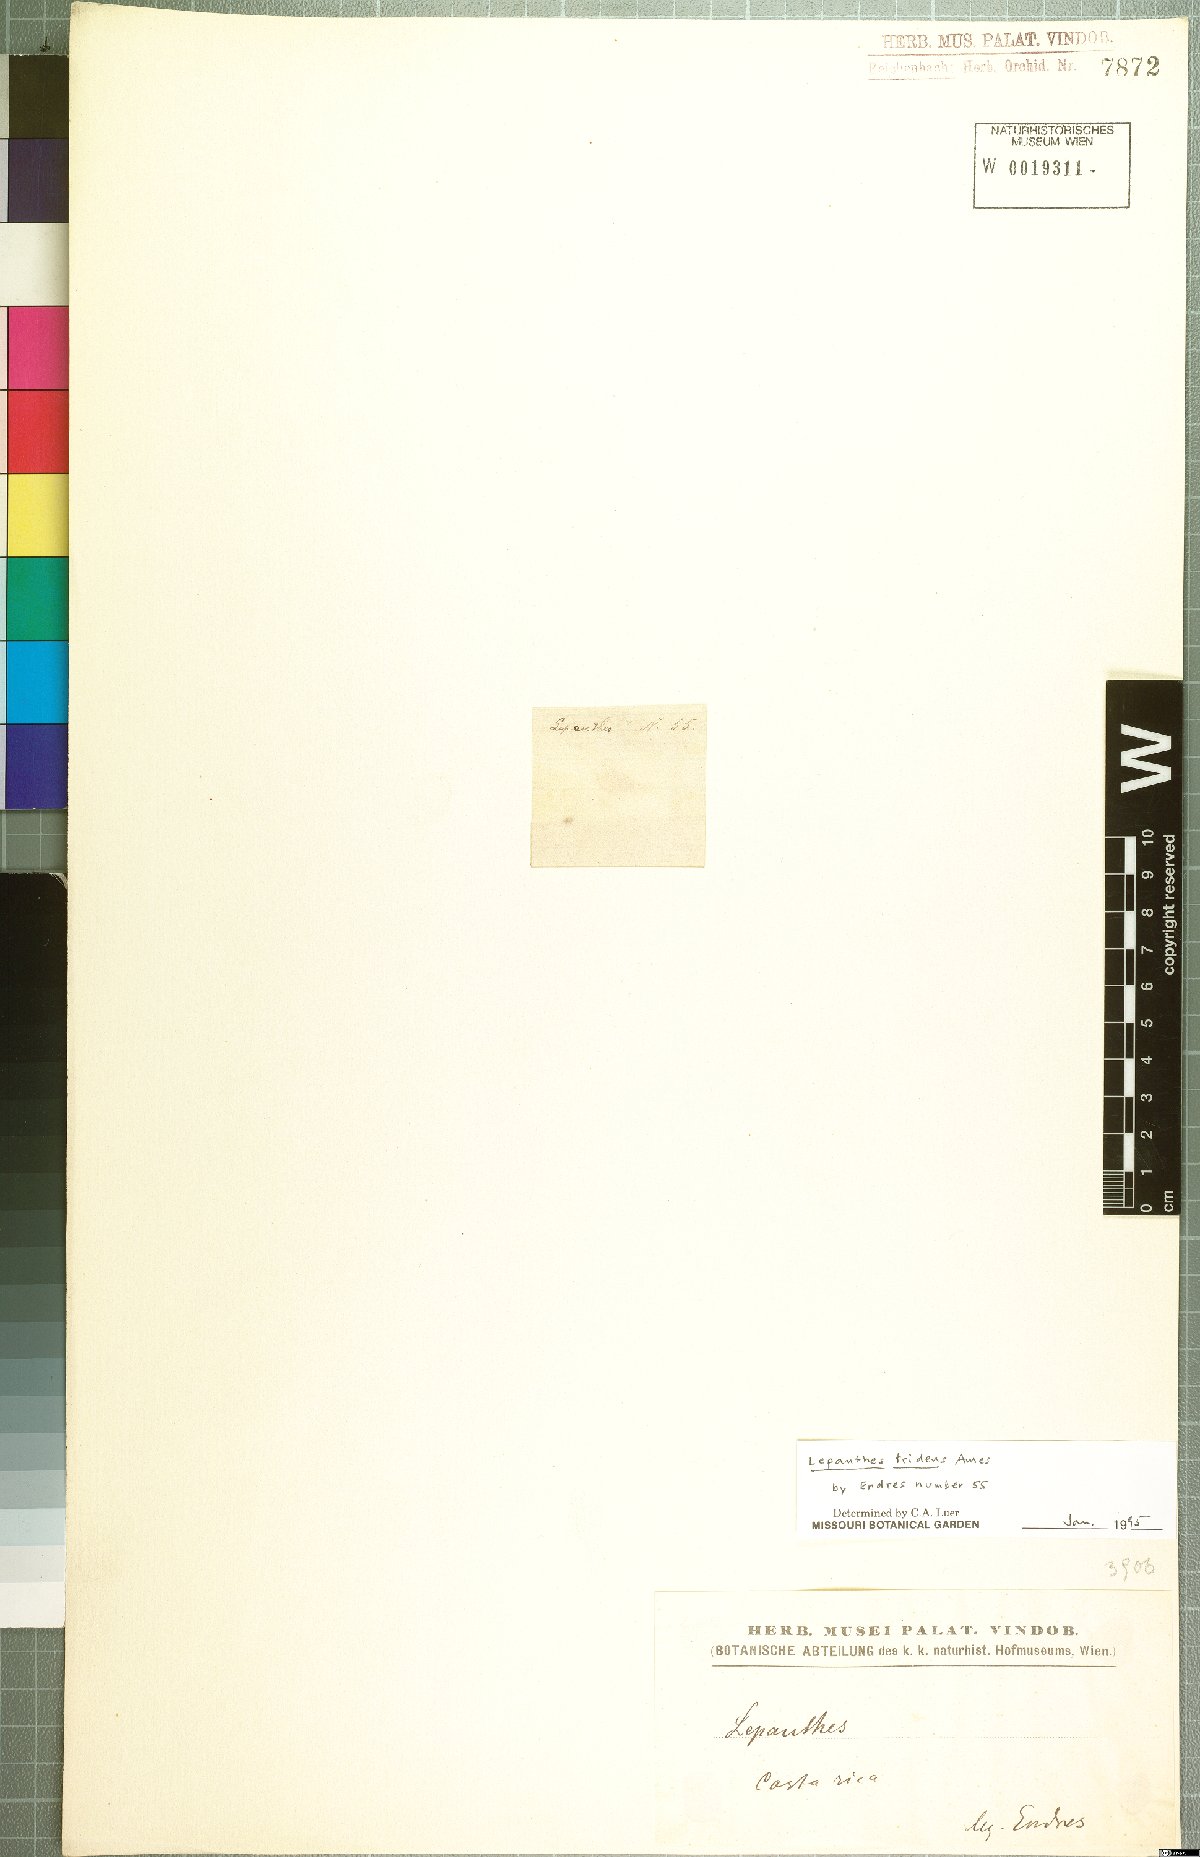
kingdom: Plantae
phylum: Tracheophyta
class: Liliopsida
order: Asparagales
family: Orchidaceae
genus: Lepanthes
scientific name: Lepanthes tridens
